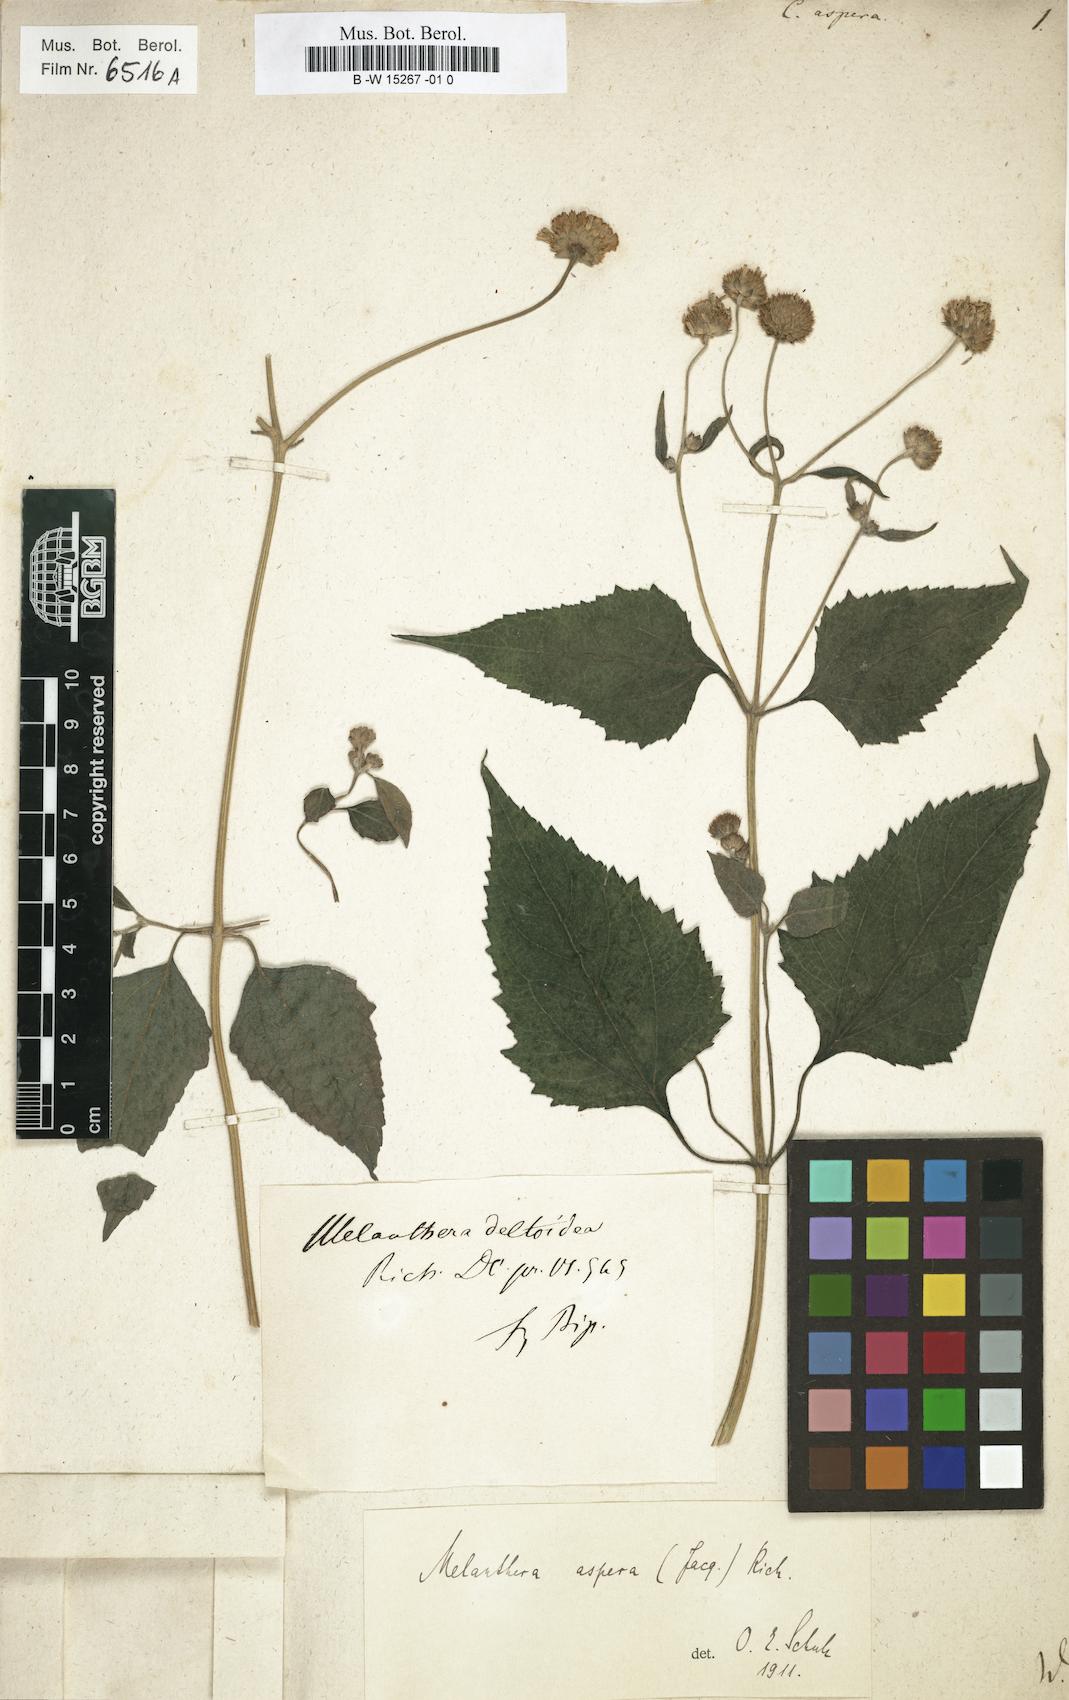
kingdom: Plantae
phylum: Tracheophyta
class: Magnoliopsida
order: Asterales
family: Asteraceae
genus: Melanthera
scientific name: Melanthera nivea
